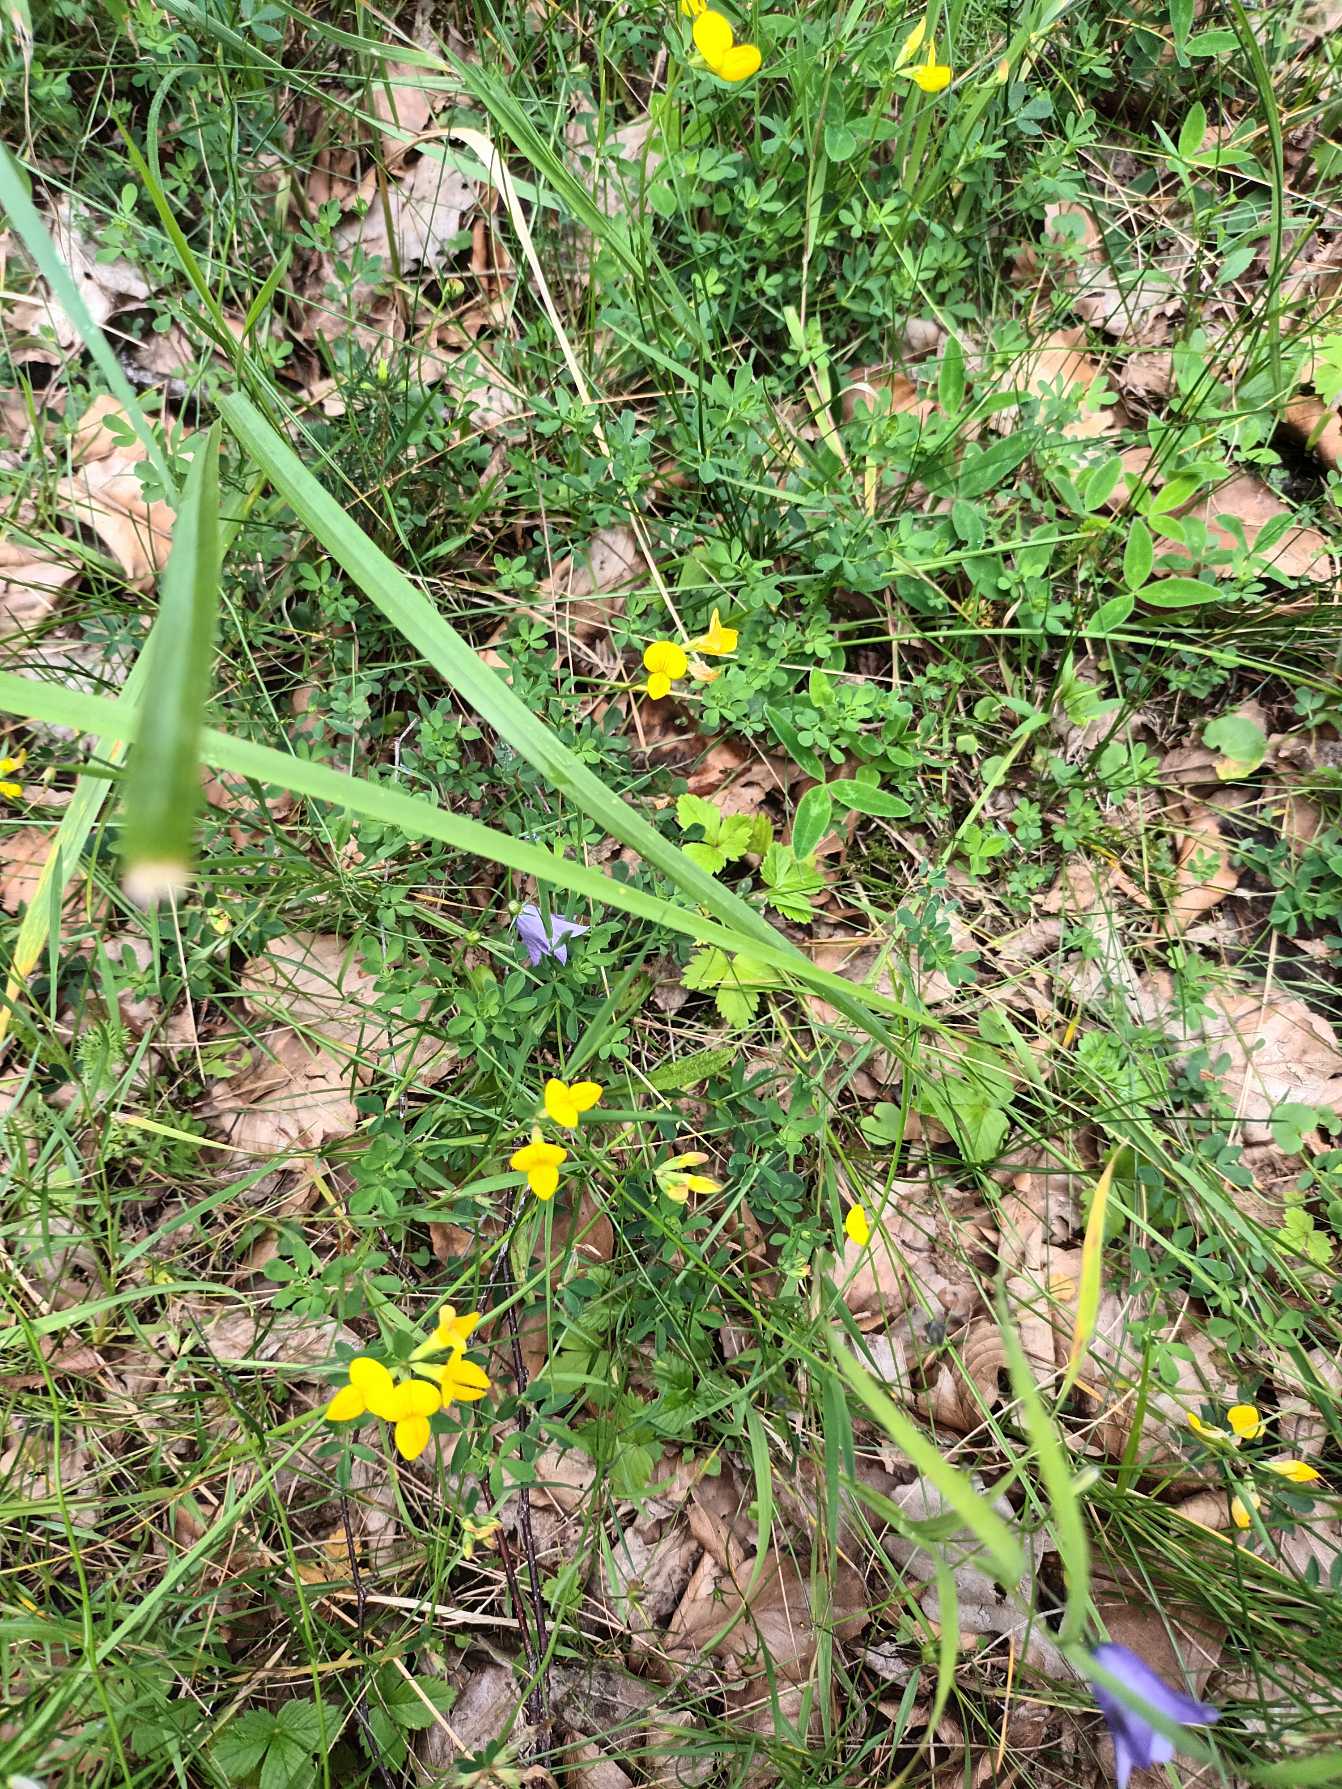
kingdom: Plantae
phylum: Tracheophyta
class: Magnoliopsida
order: Fabales
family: Fabaceae
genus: Lotus
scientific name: Lotus corniculatus
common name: Almindelig kællingetand
